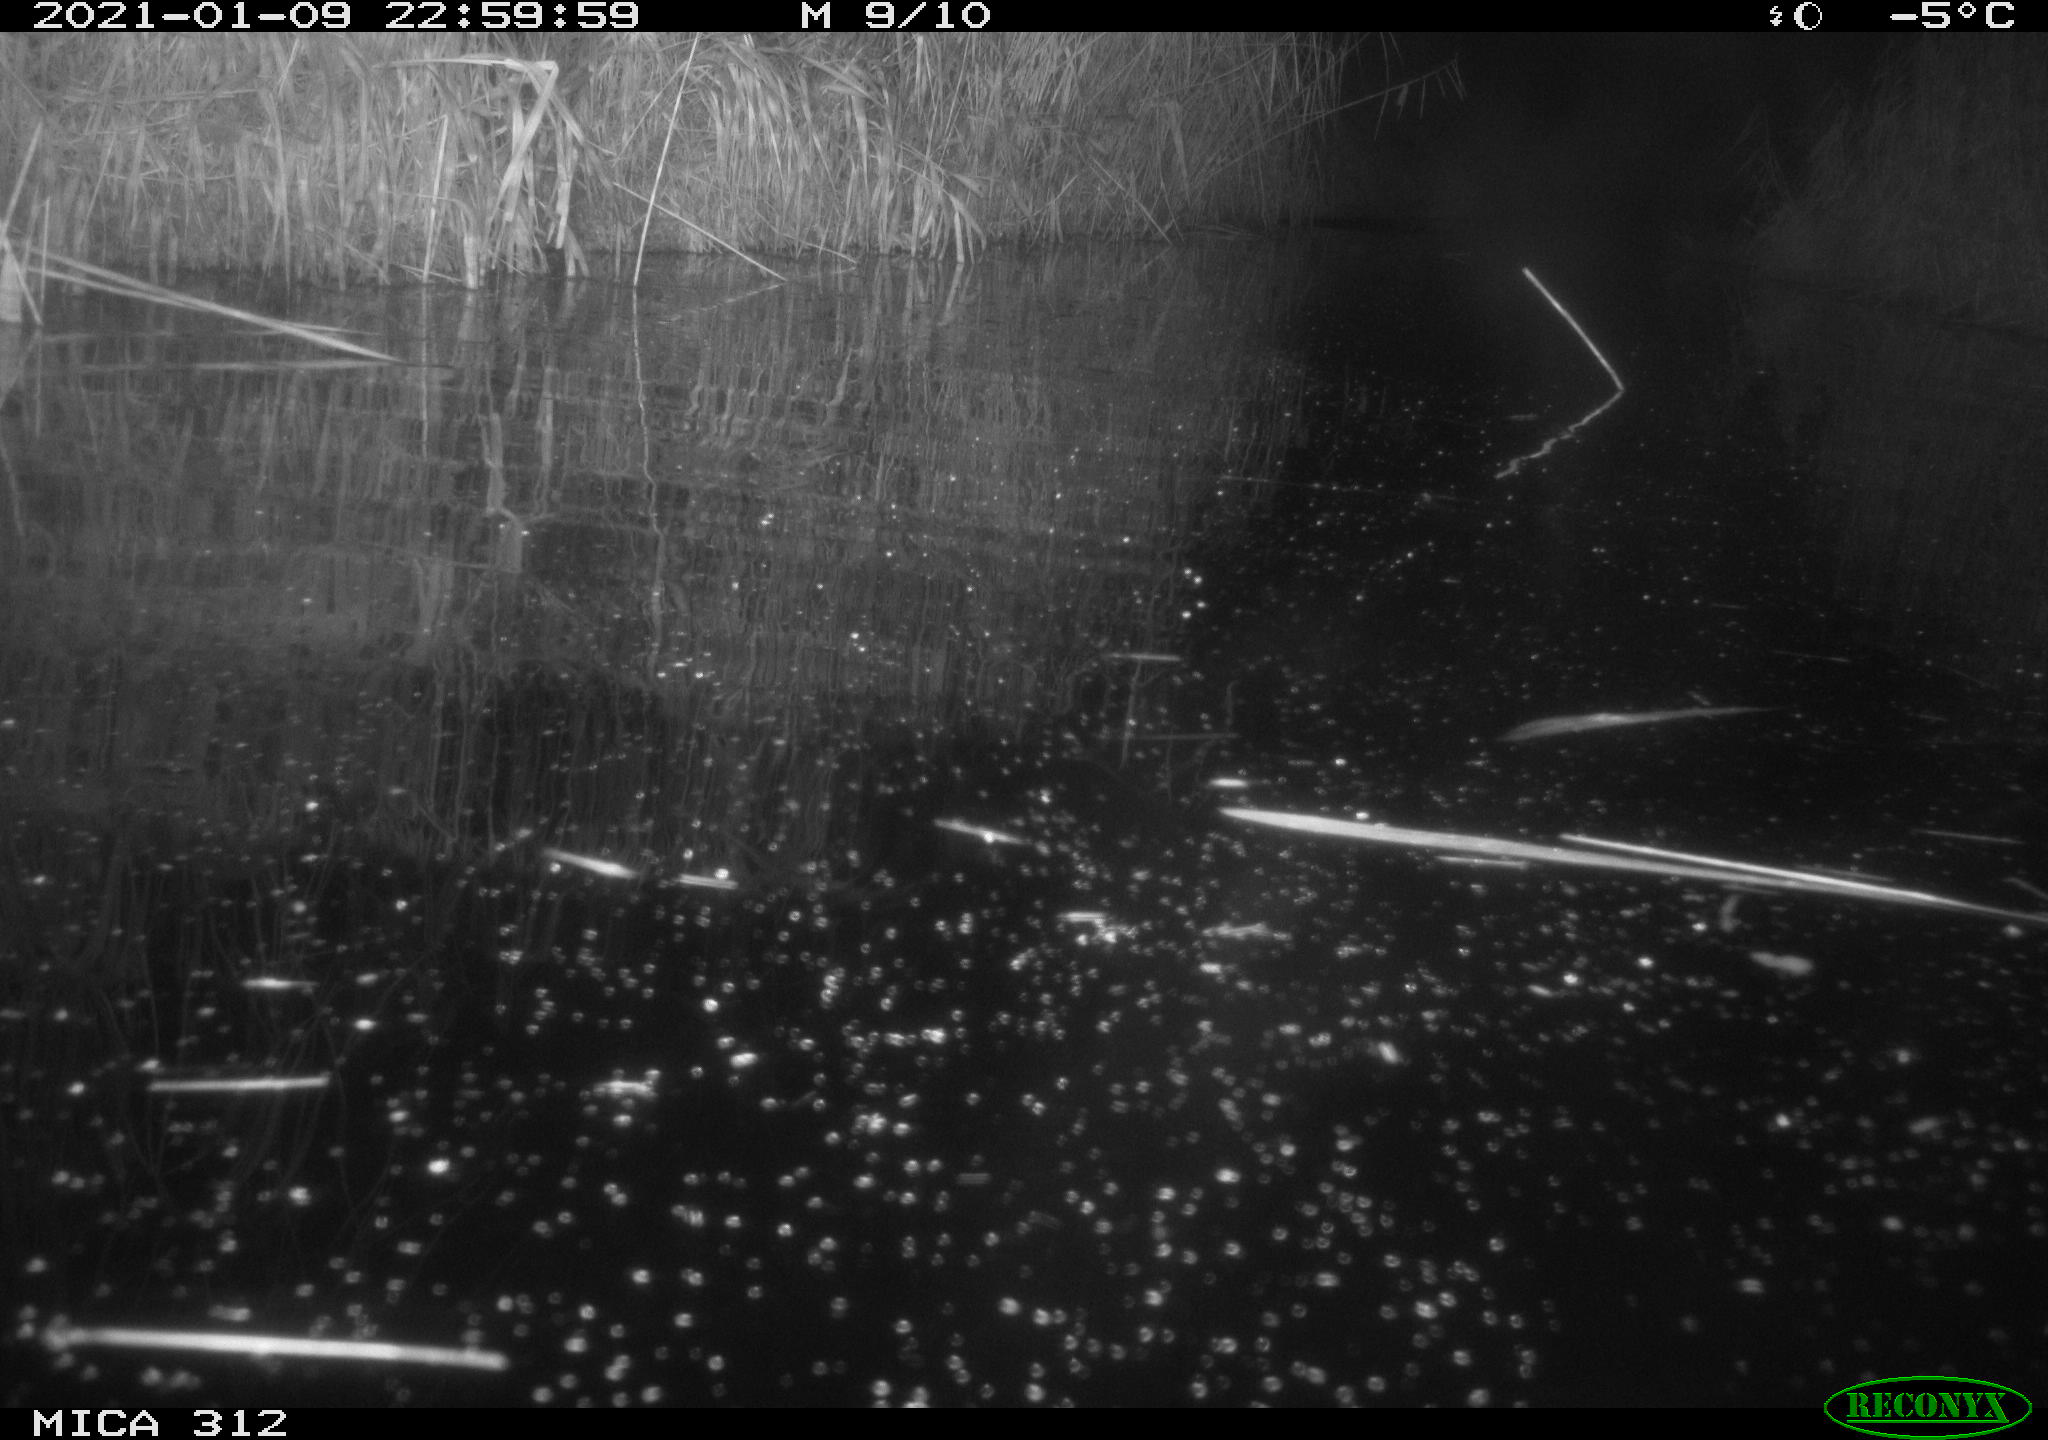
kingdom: Animalia
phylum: Chordata
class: Mammalia
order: Rodentia
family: Muridae
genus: Rattus
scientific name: Rattus norvegicus
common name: Brown rat
